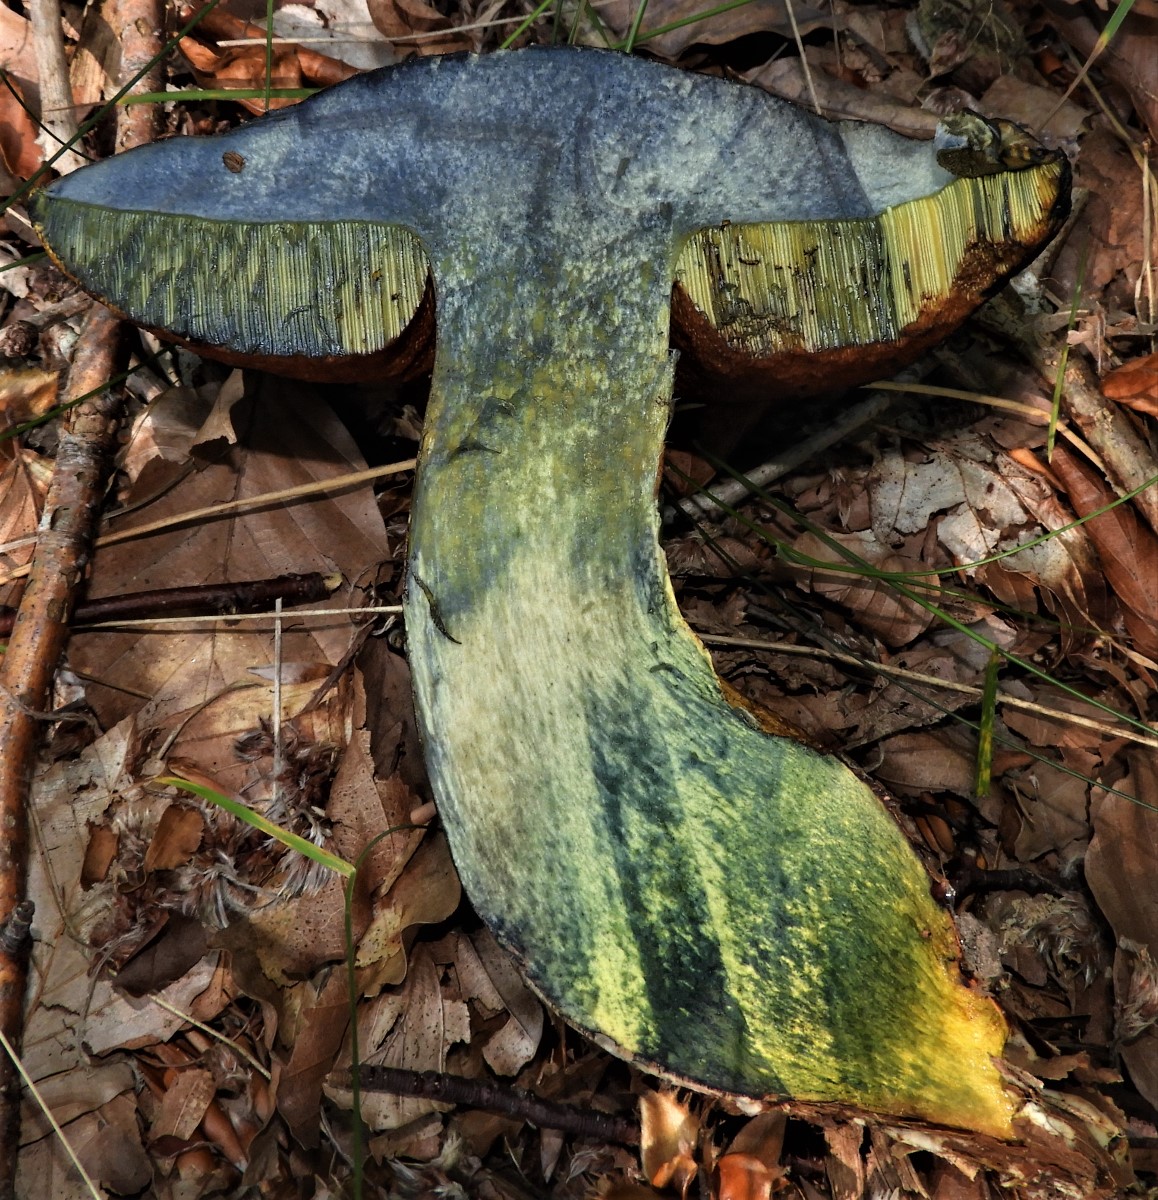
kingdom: Fungi
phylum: Basidiomycota
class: Agaricomycetes
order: Boletales
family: Boletaceae
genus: Suillellus
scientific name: Suillellus luridus
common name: netstokket indigorørhat
